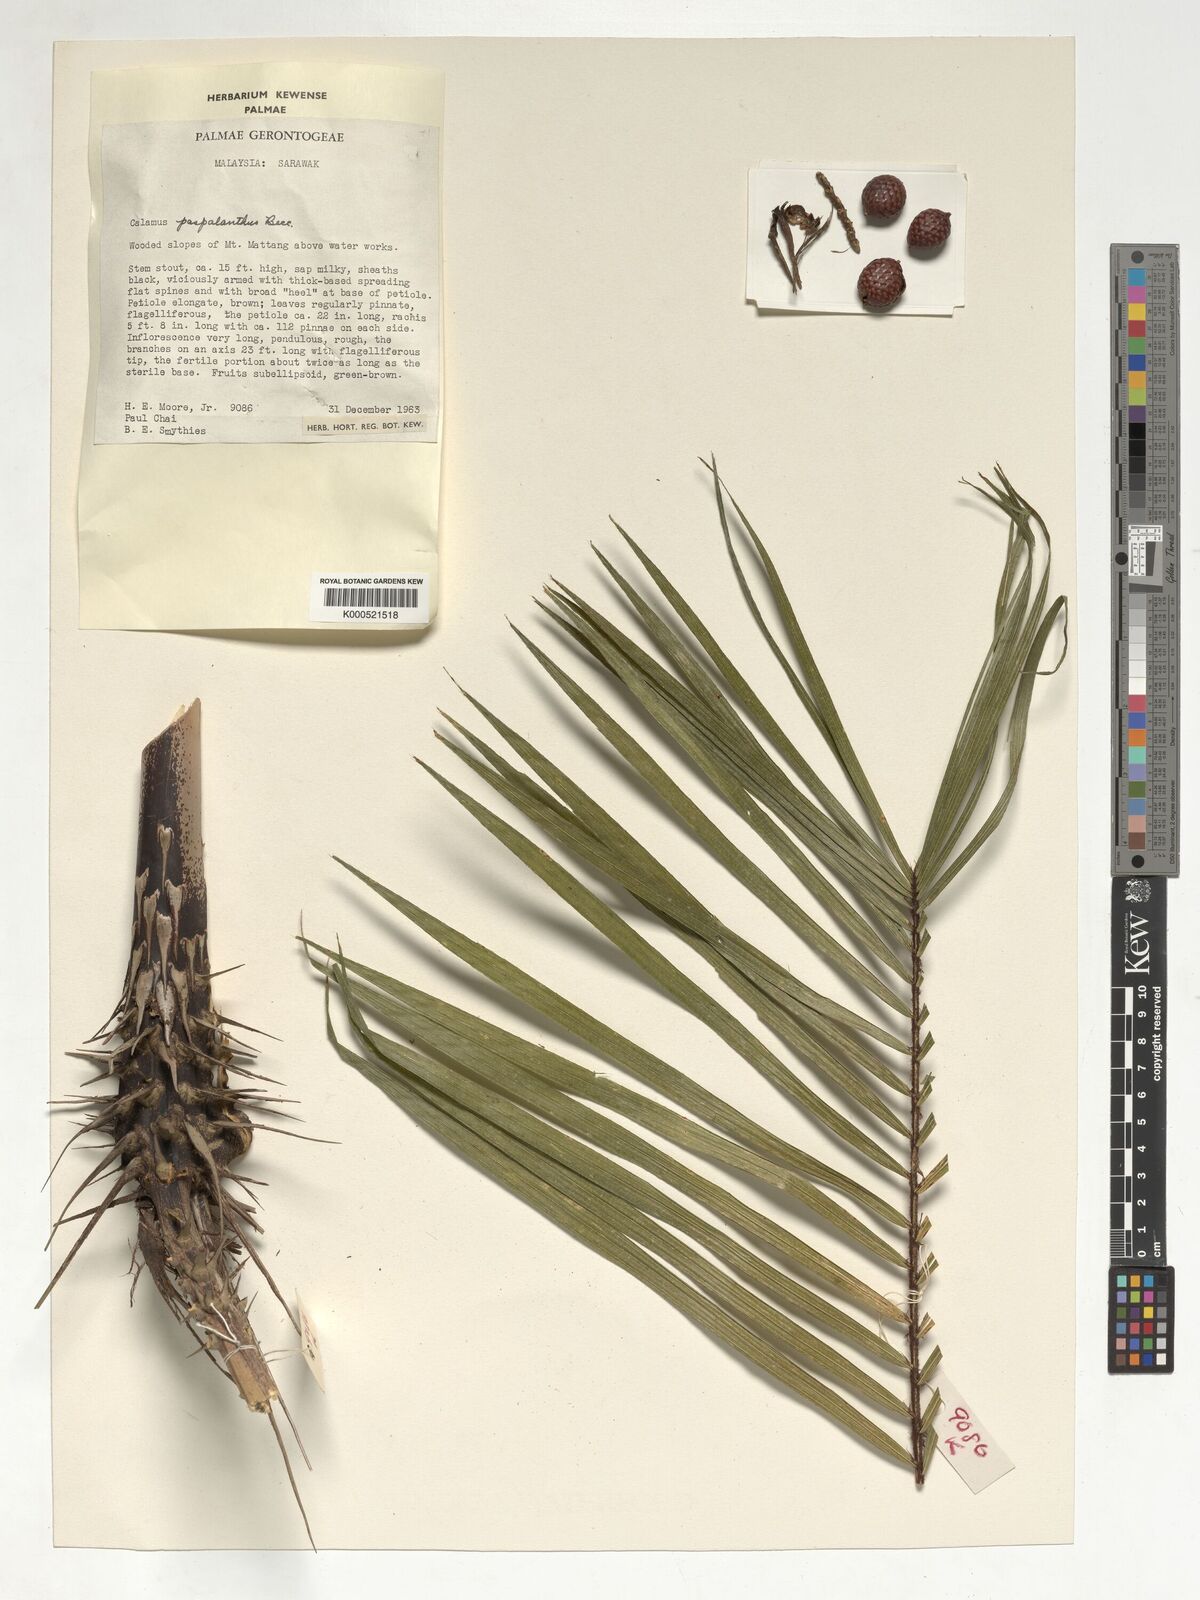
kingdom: Plantae
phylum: Tracheophyta
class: Liliopsida
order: Arecales
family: Arecaceae
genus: Calamus
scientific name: Calamus paspalanthus
